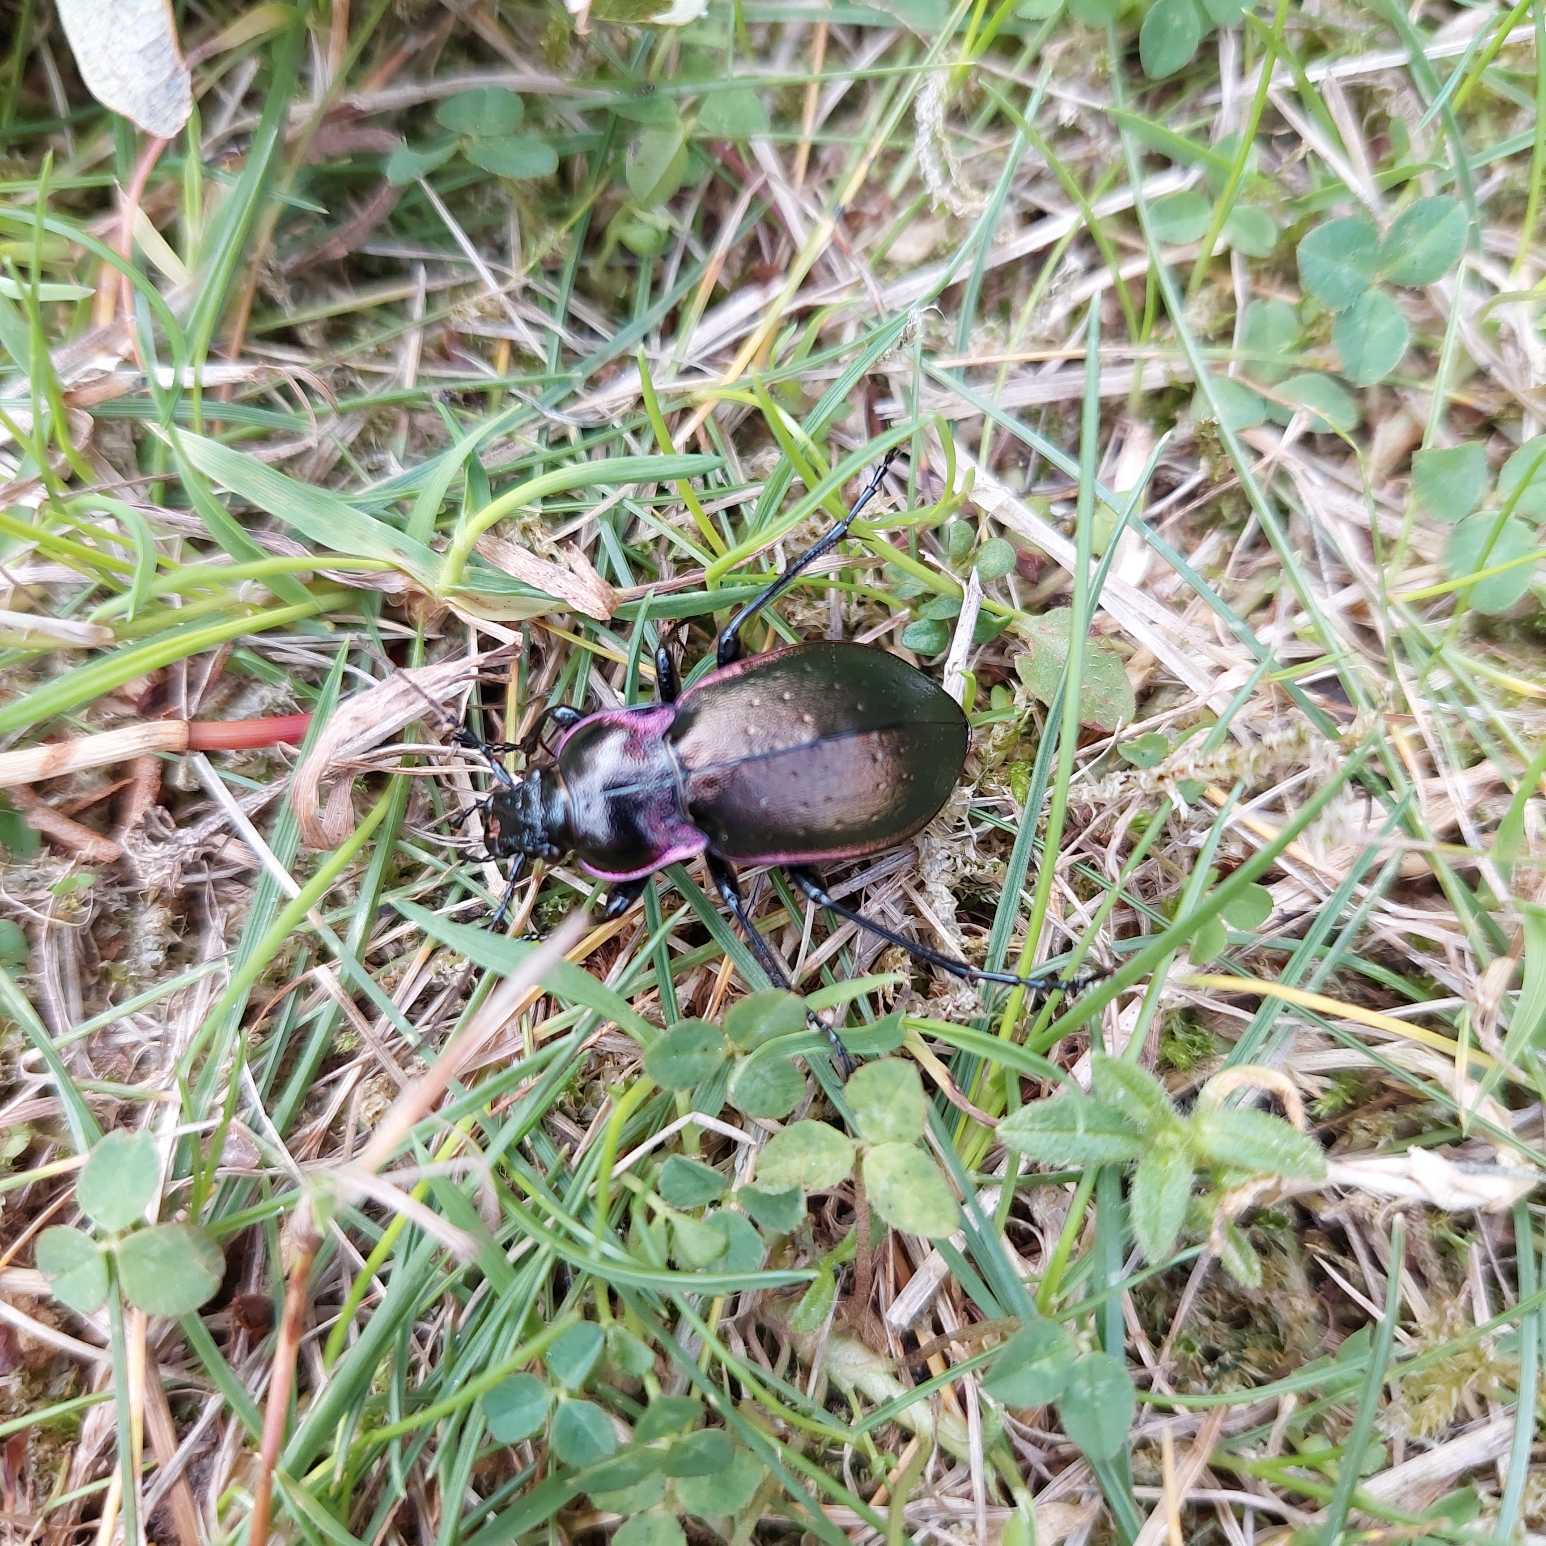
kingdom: Animalia
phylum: Arthropoda
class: Insecta
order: Coleoptera
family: Carabidae
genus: Carabus
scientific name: Carabus nemoralis
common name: Kratløber
